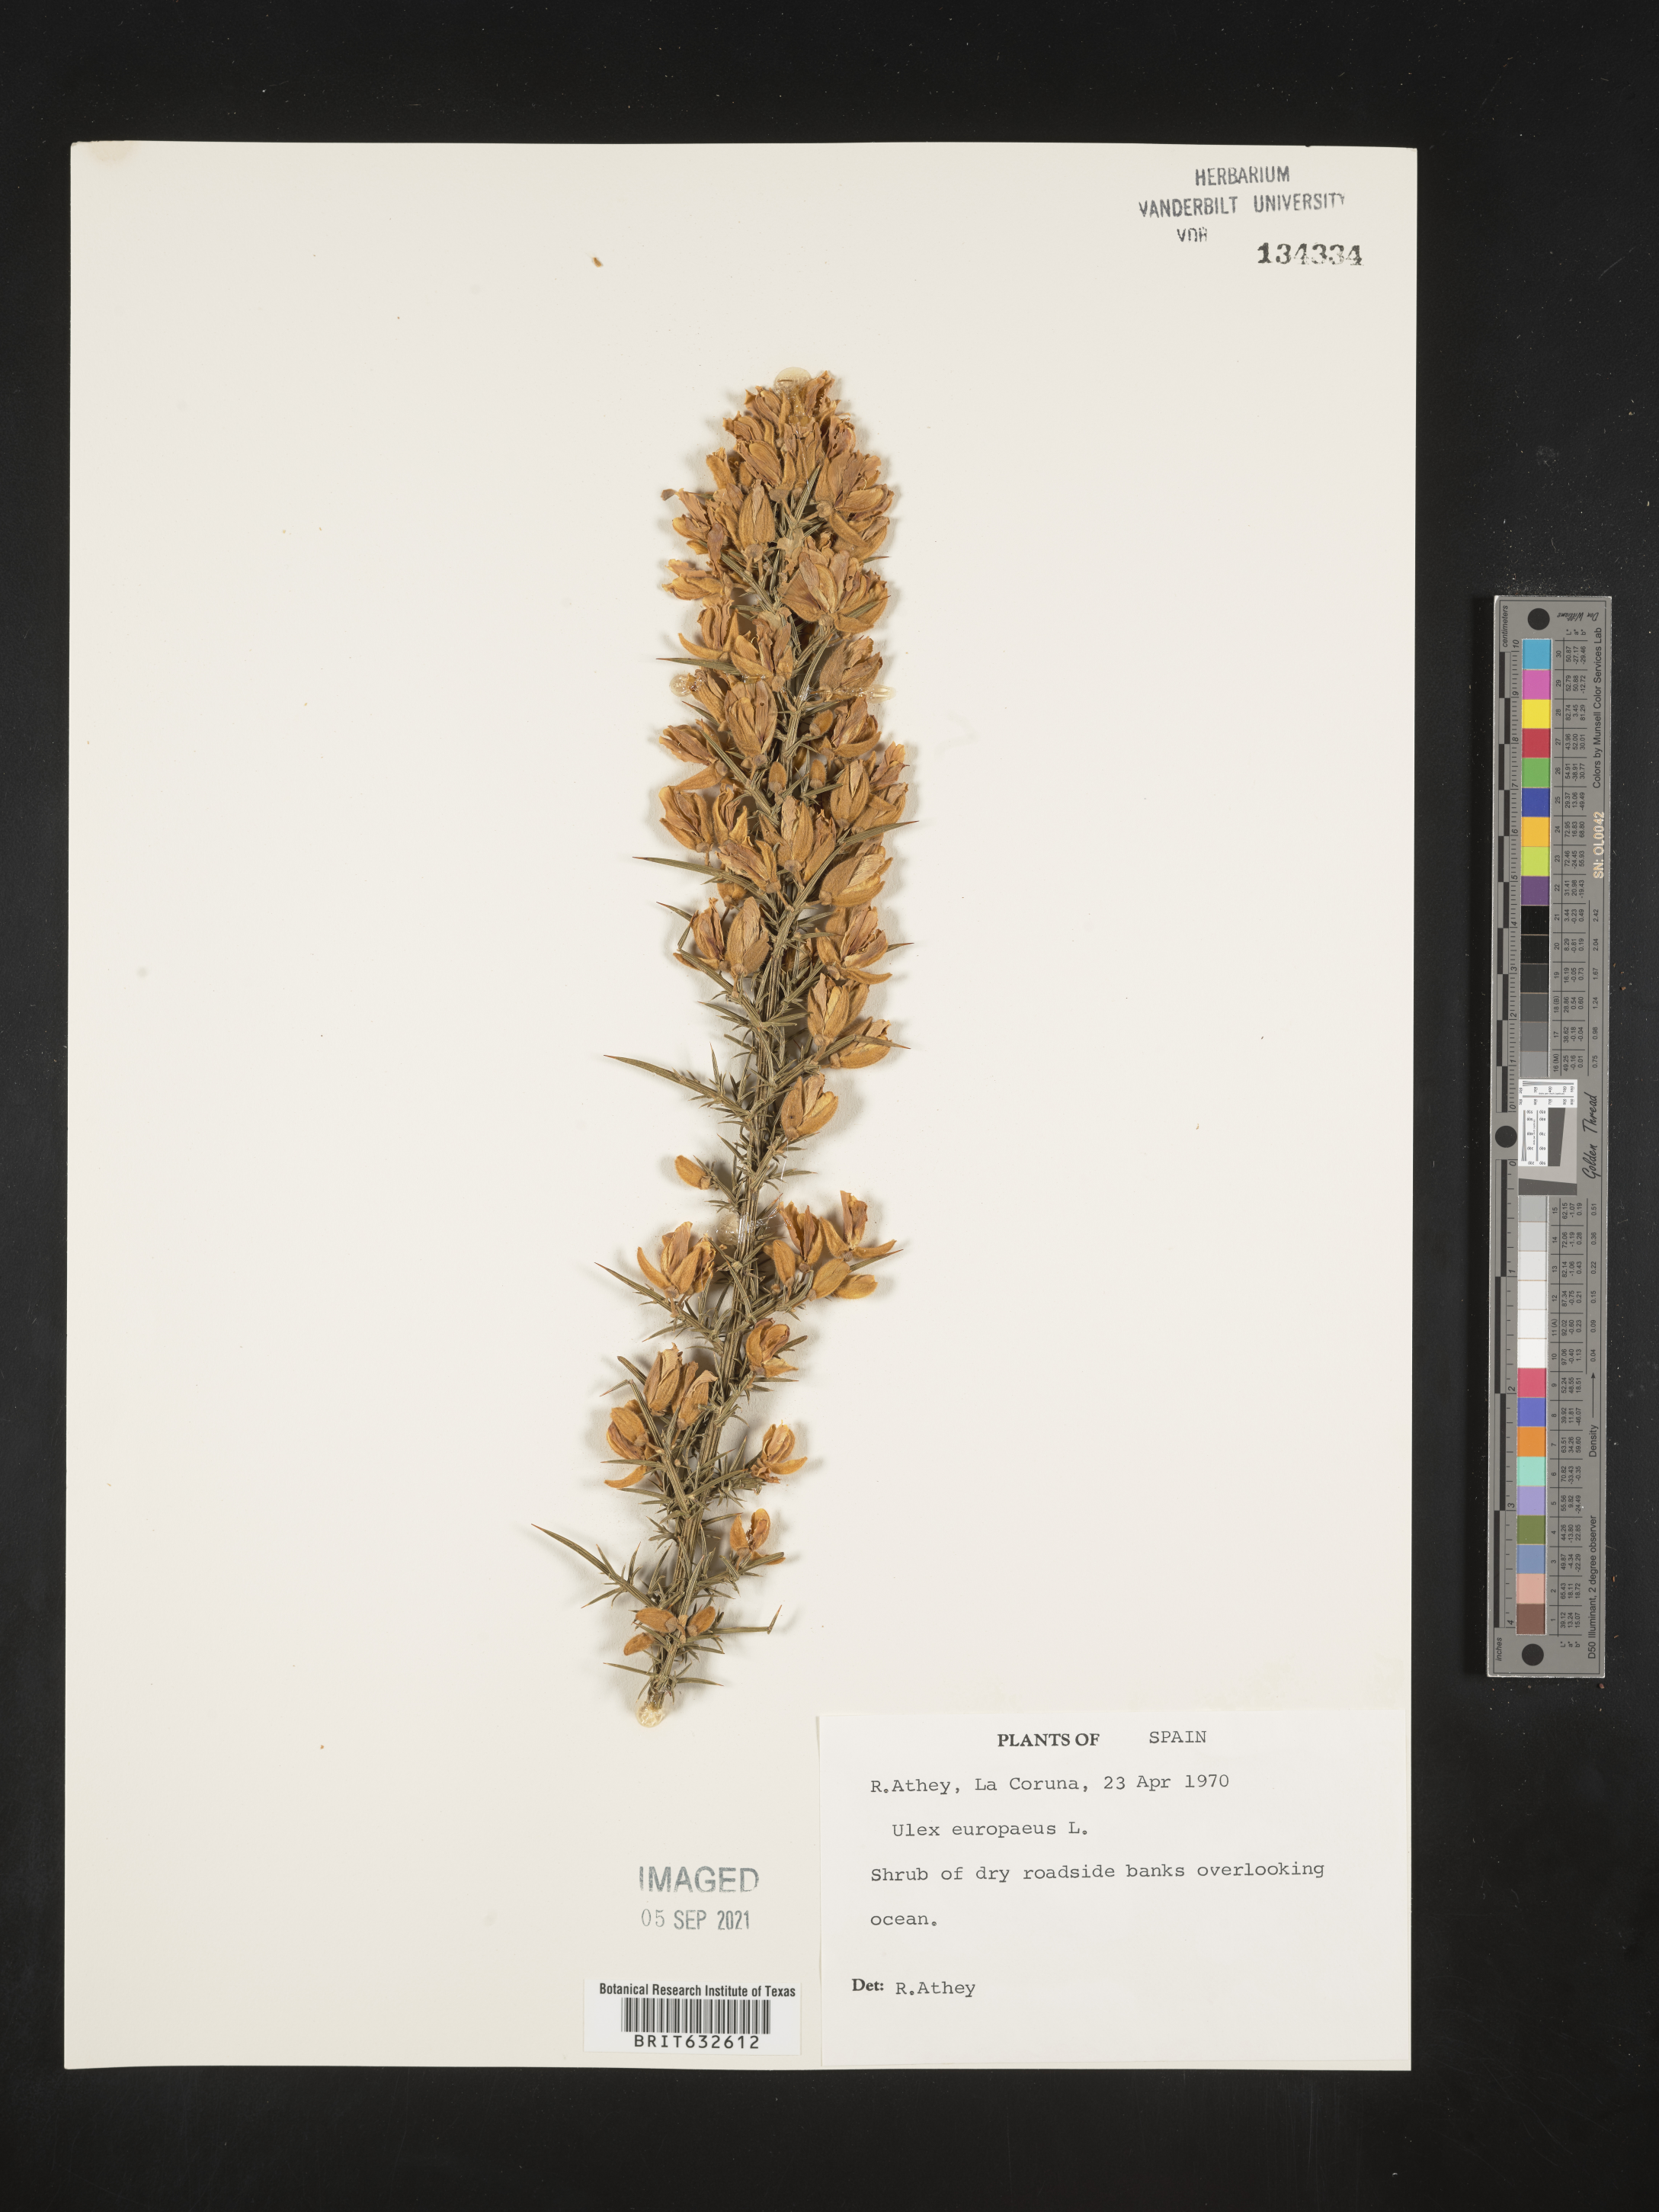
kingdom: Plantae
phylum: Tracheophyta
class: Magnoliopsida
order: Fabales
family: Fabaceae
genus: Ulex
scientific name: Ulex europaeus
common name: Common gorse
